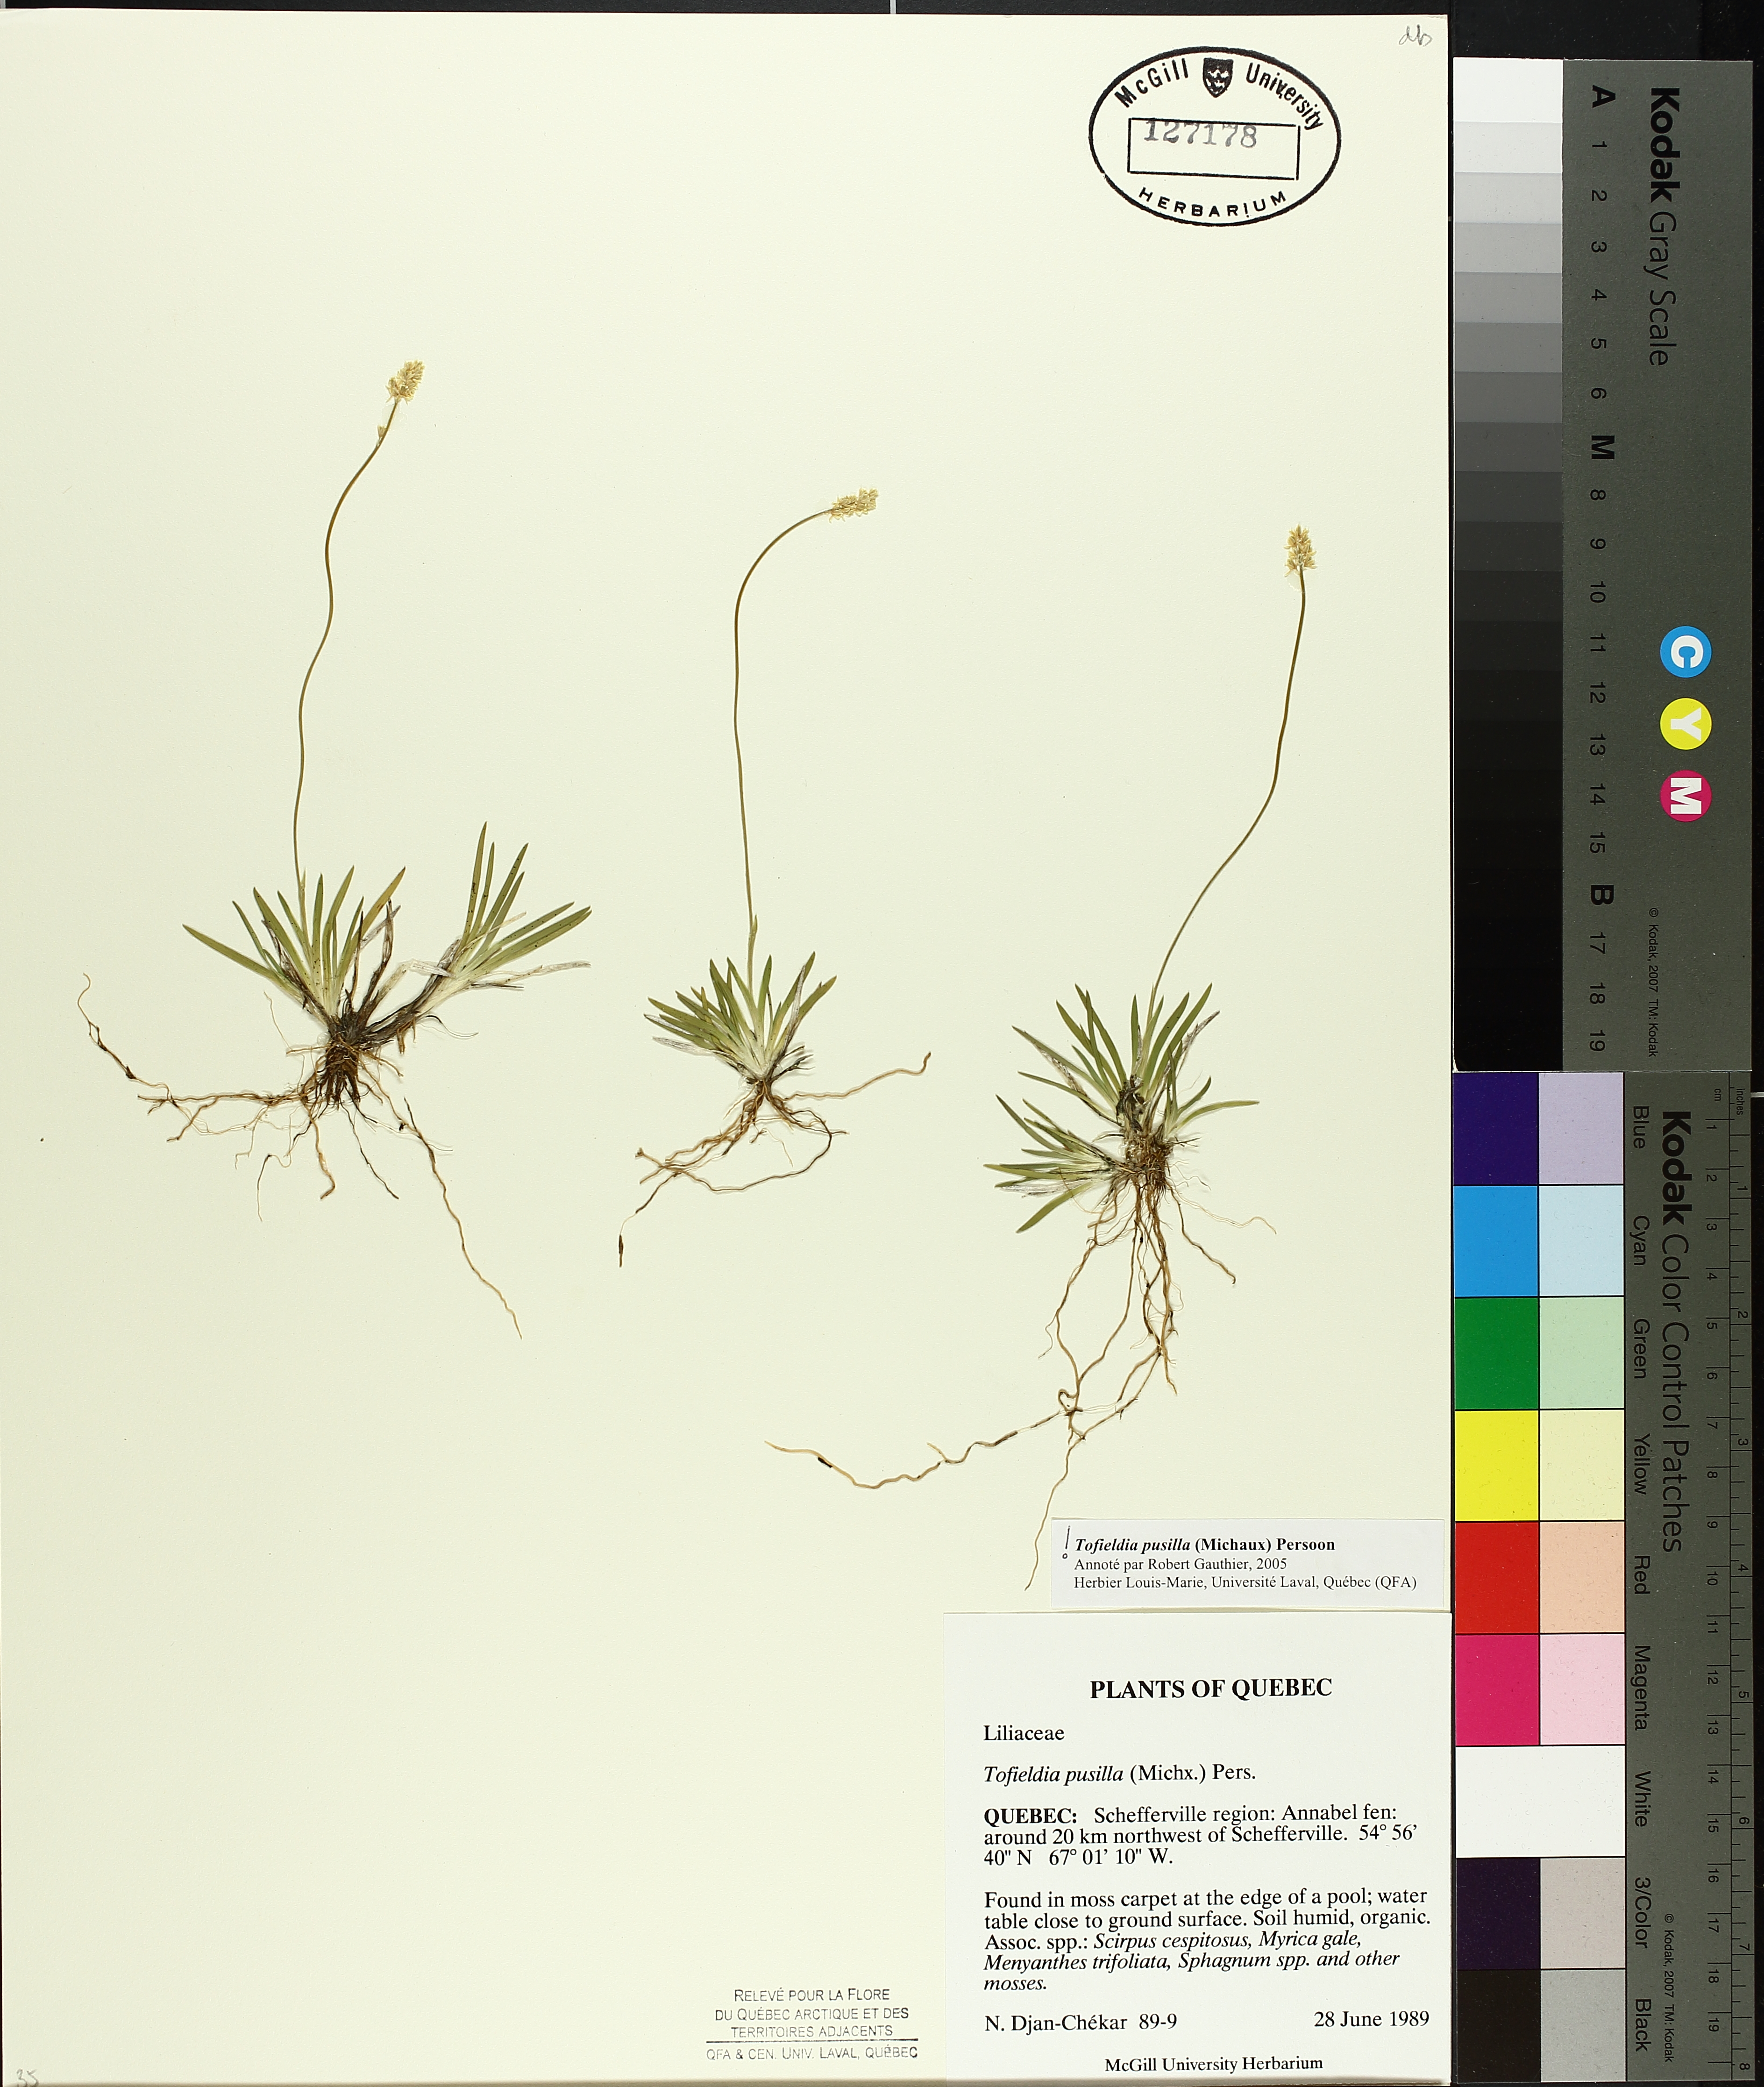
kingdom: Plantae
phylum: Tracheophyta
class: Liliopsida
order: Alismatales
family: Tofieldiaceae
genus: Tofieldia
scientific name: Tofieldia pusilla
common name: Scottish false asphodel
